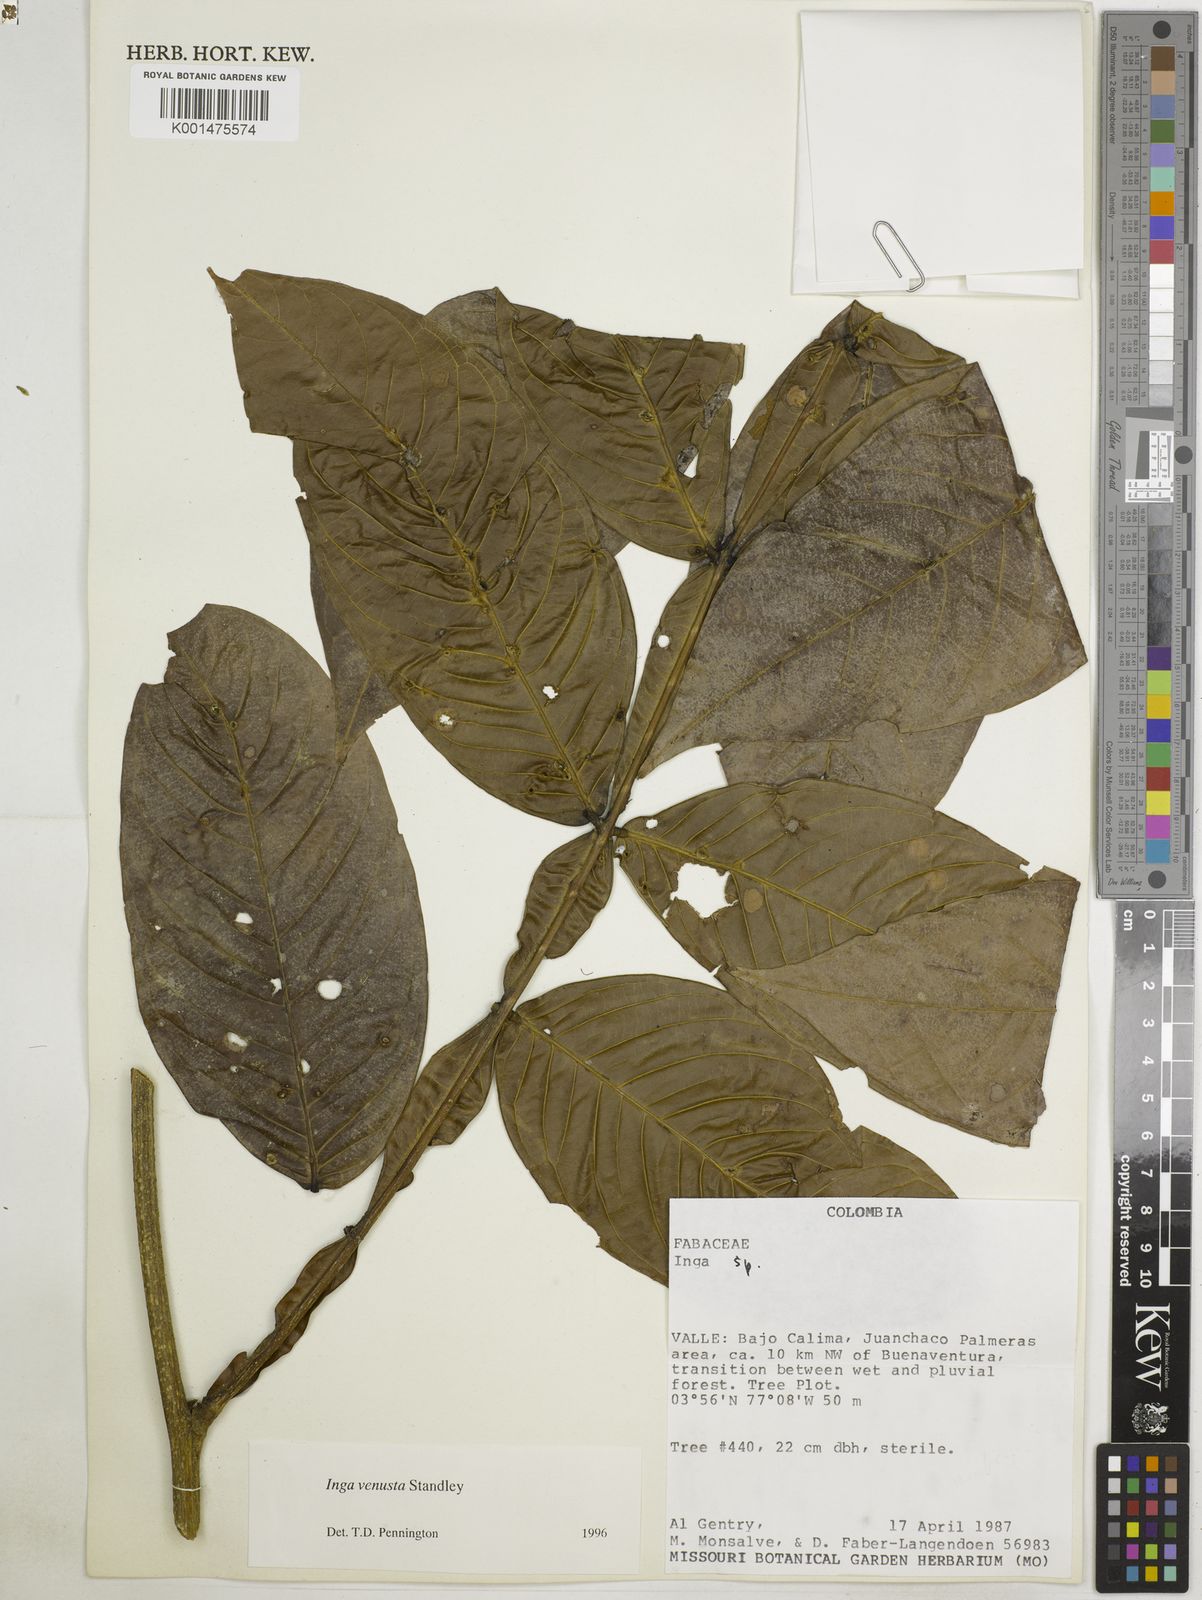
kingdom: Plantae
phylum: Tracheophyta
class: Magnoliopsida
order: Fabales
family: Fabaceae
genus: Inga
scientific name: Inga venusta
